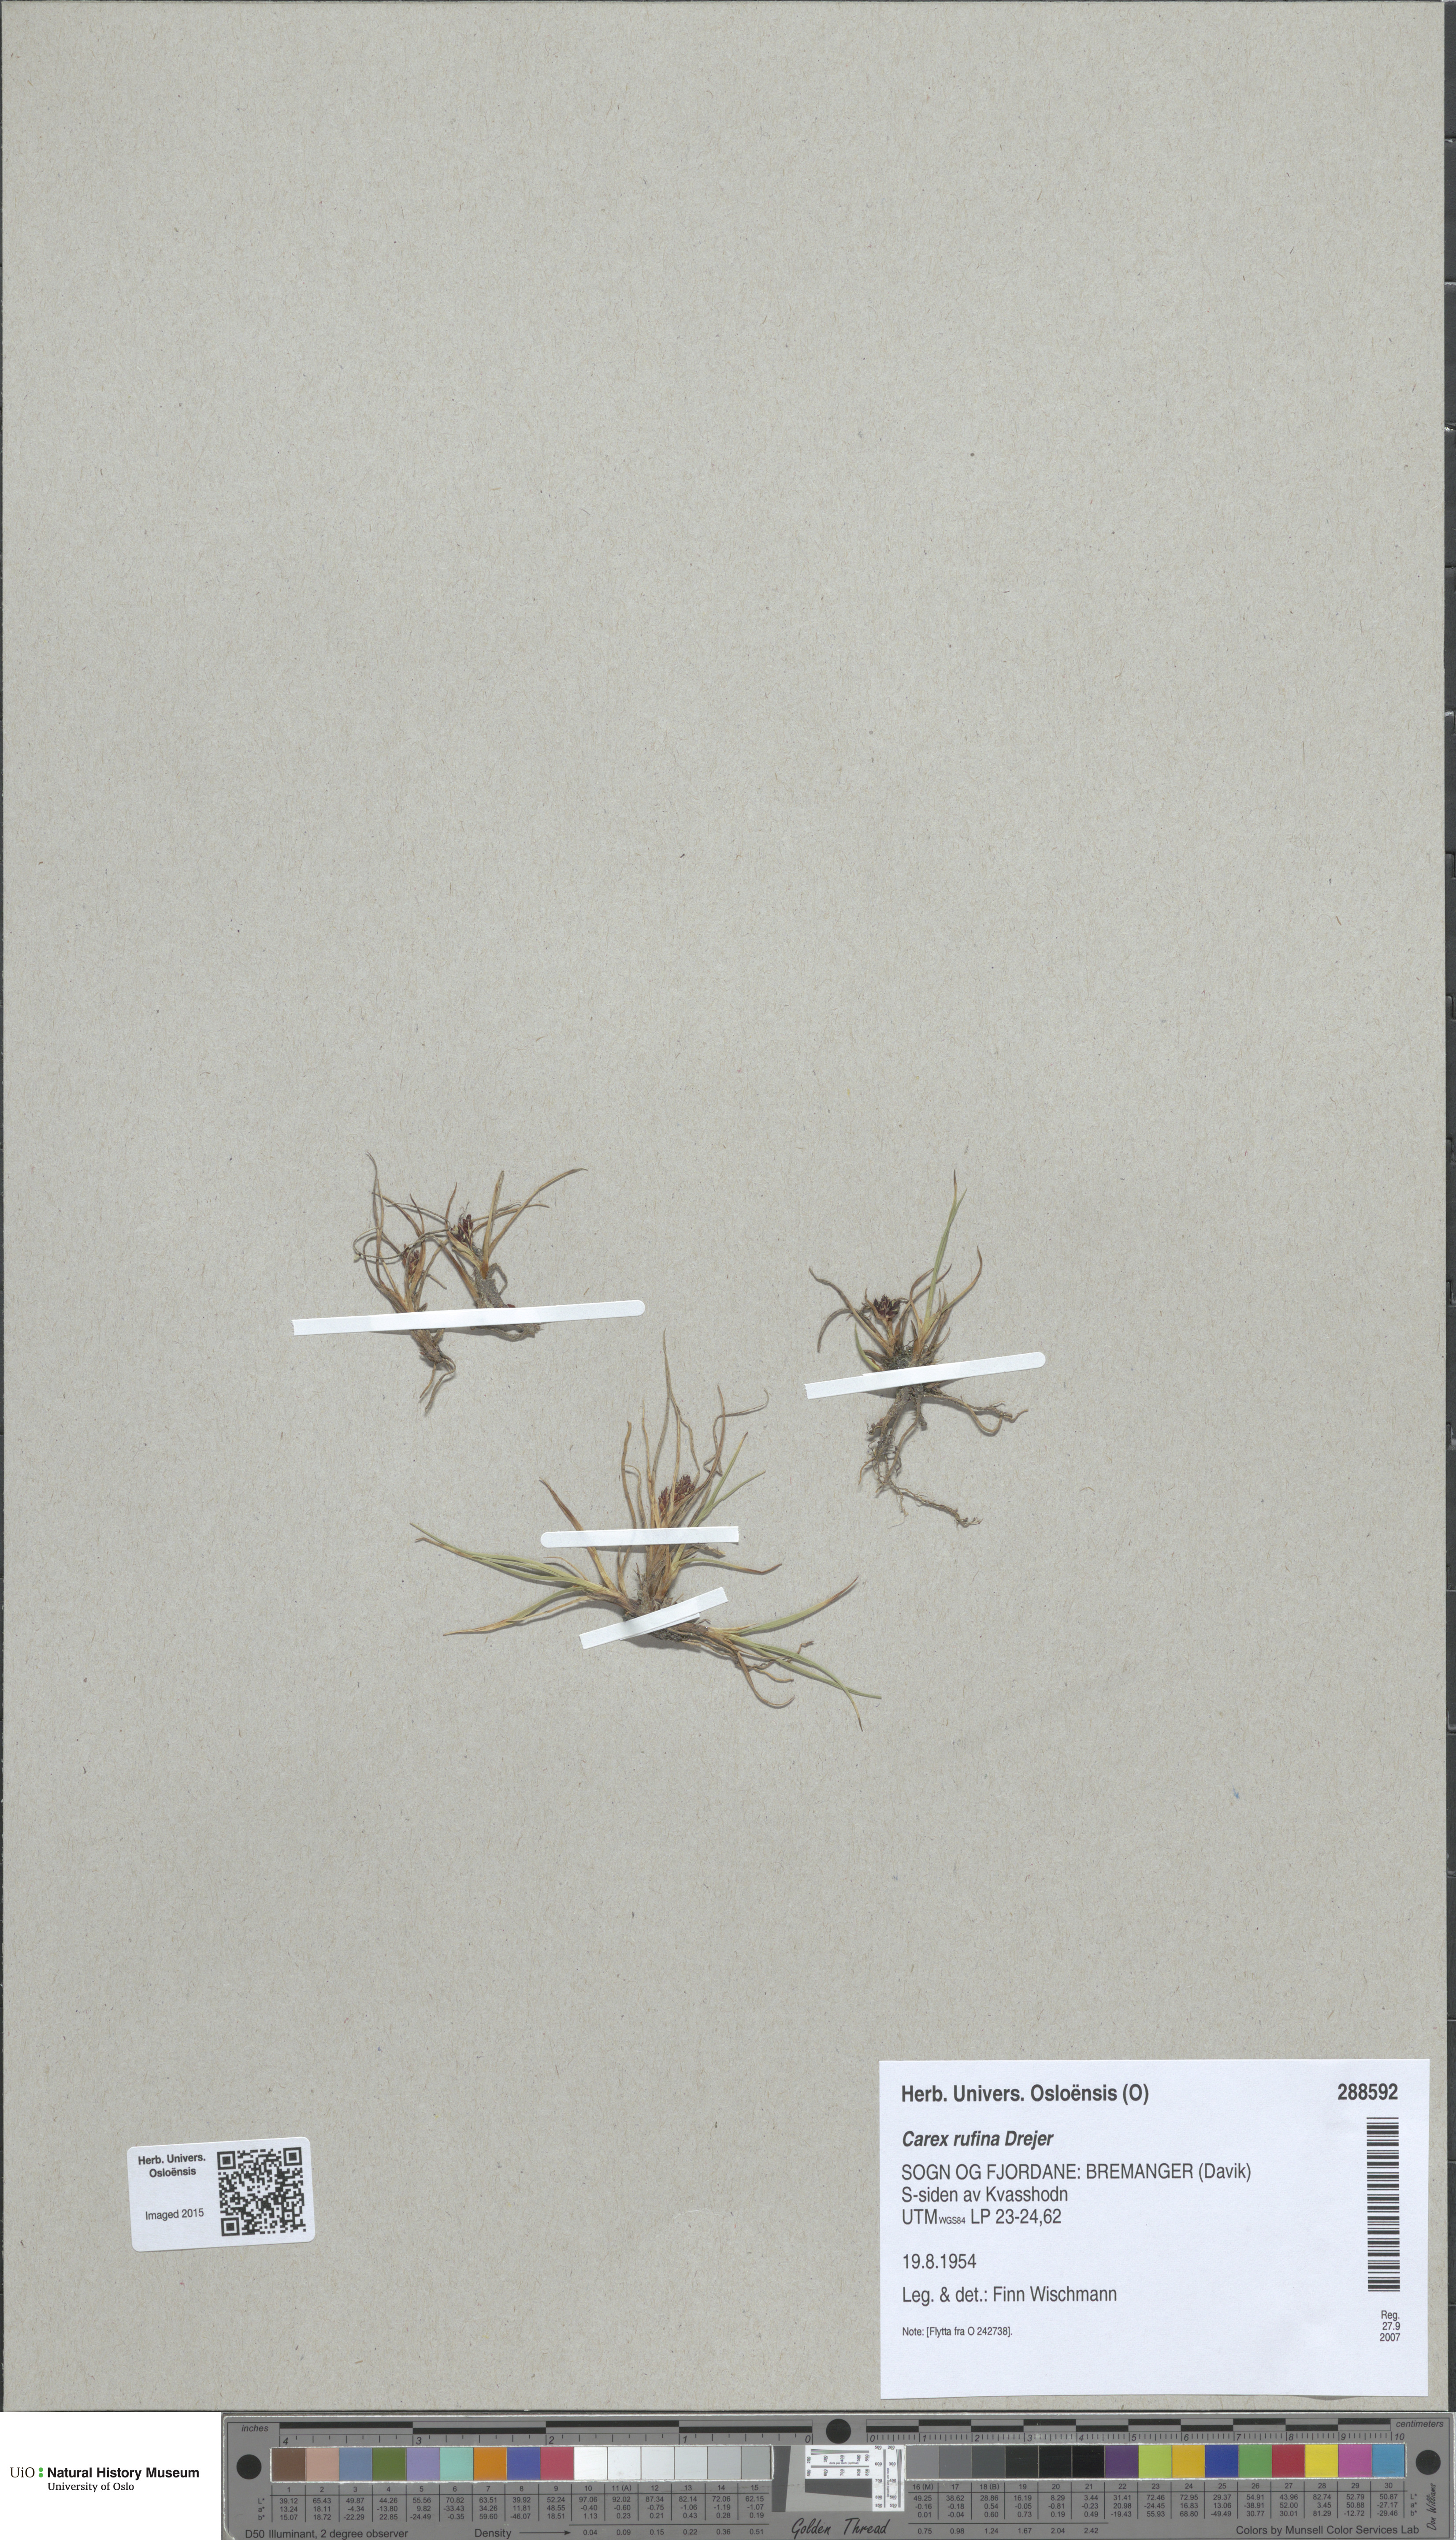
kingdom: Plantae
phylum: Tracheophyta
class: Liliopsida
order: Poales
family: Cyperaceae
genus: Carex
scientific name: Carex rufina
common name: Reddish sedge
